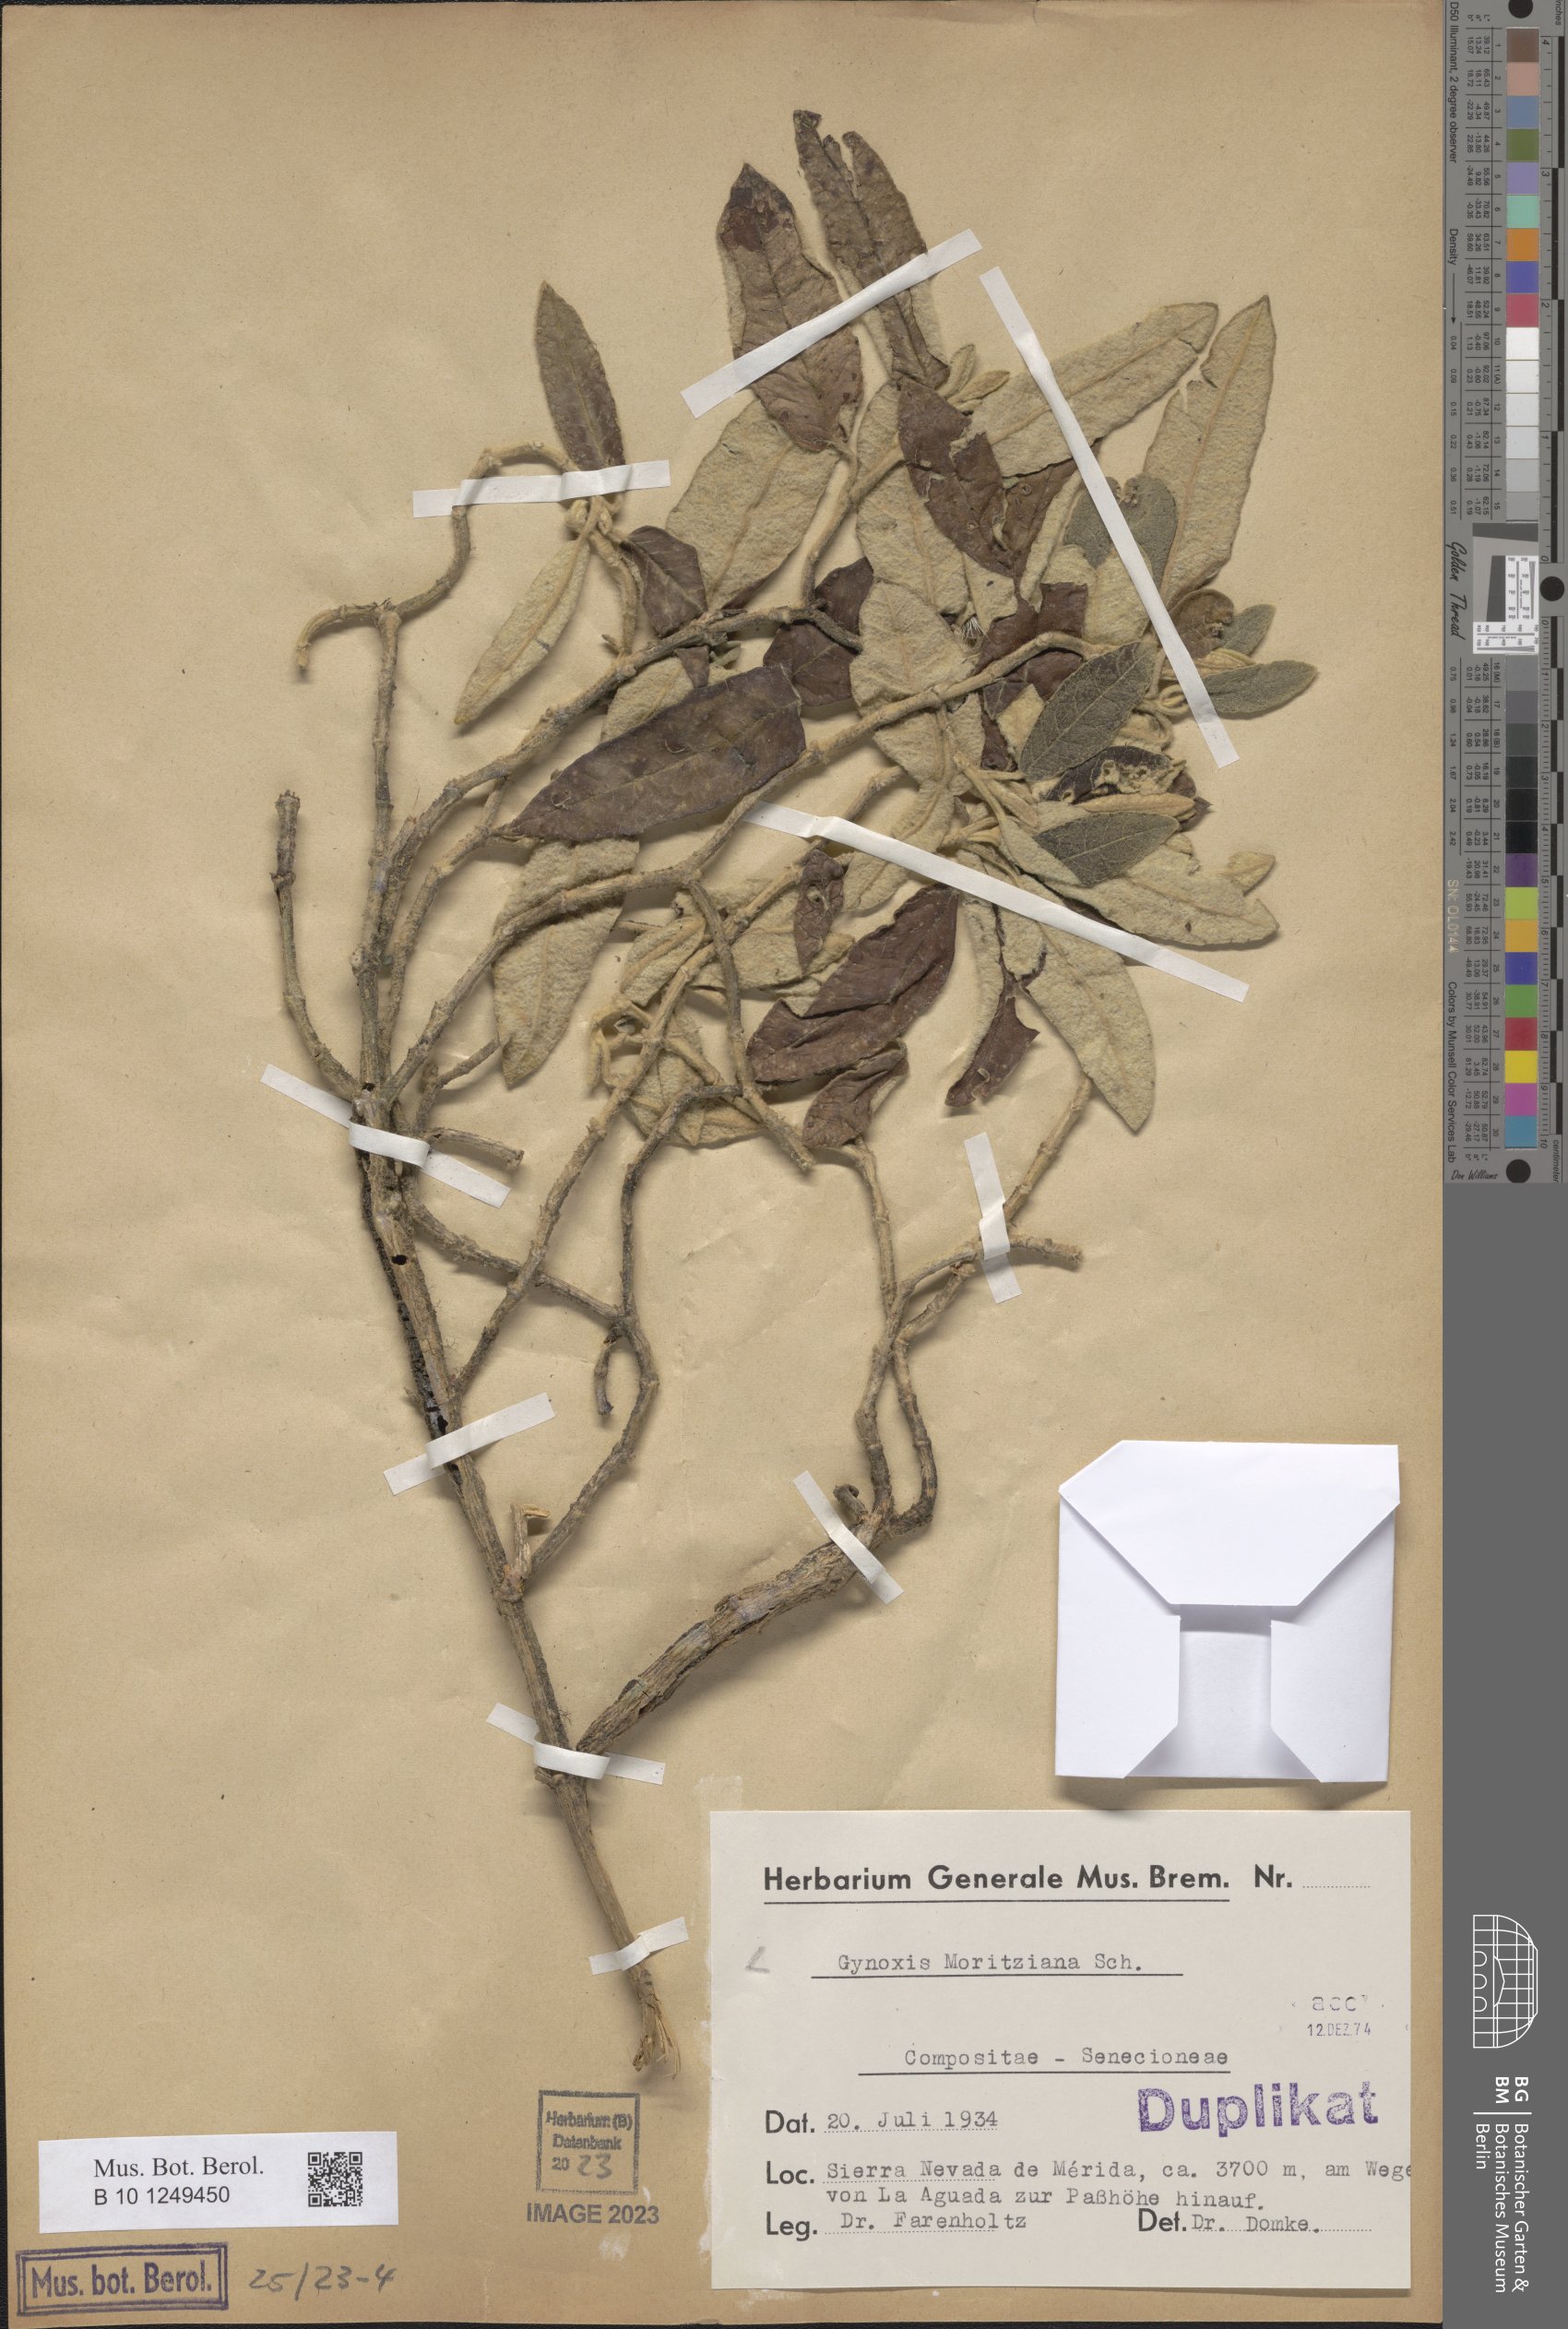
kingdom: Plantae
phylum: Tracheophyta
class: Magnoliopsida
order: Asterales
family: Asteraceae
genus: Gynoxys
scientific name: Gynoxys moritziana
